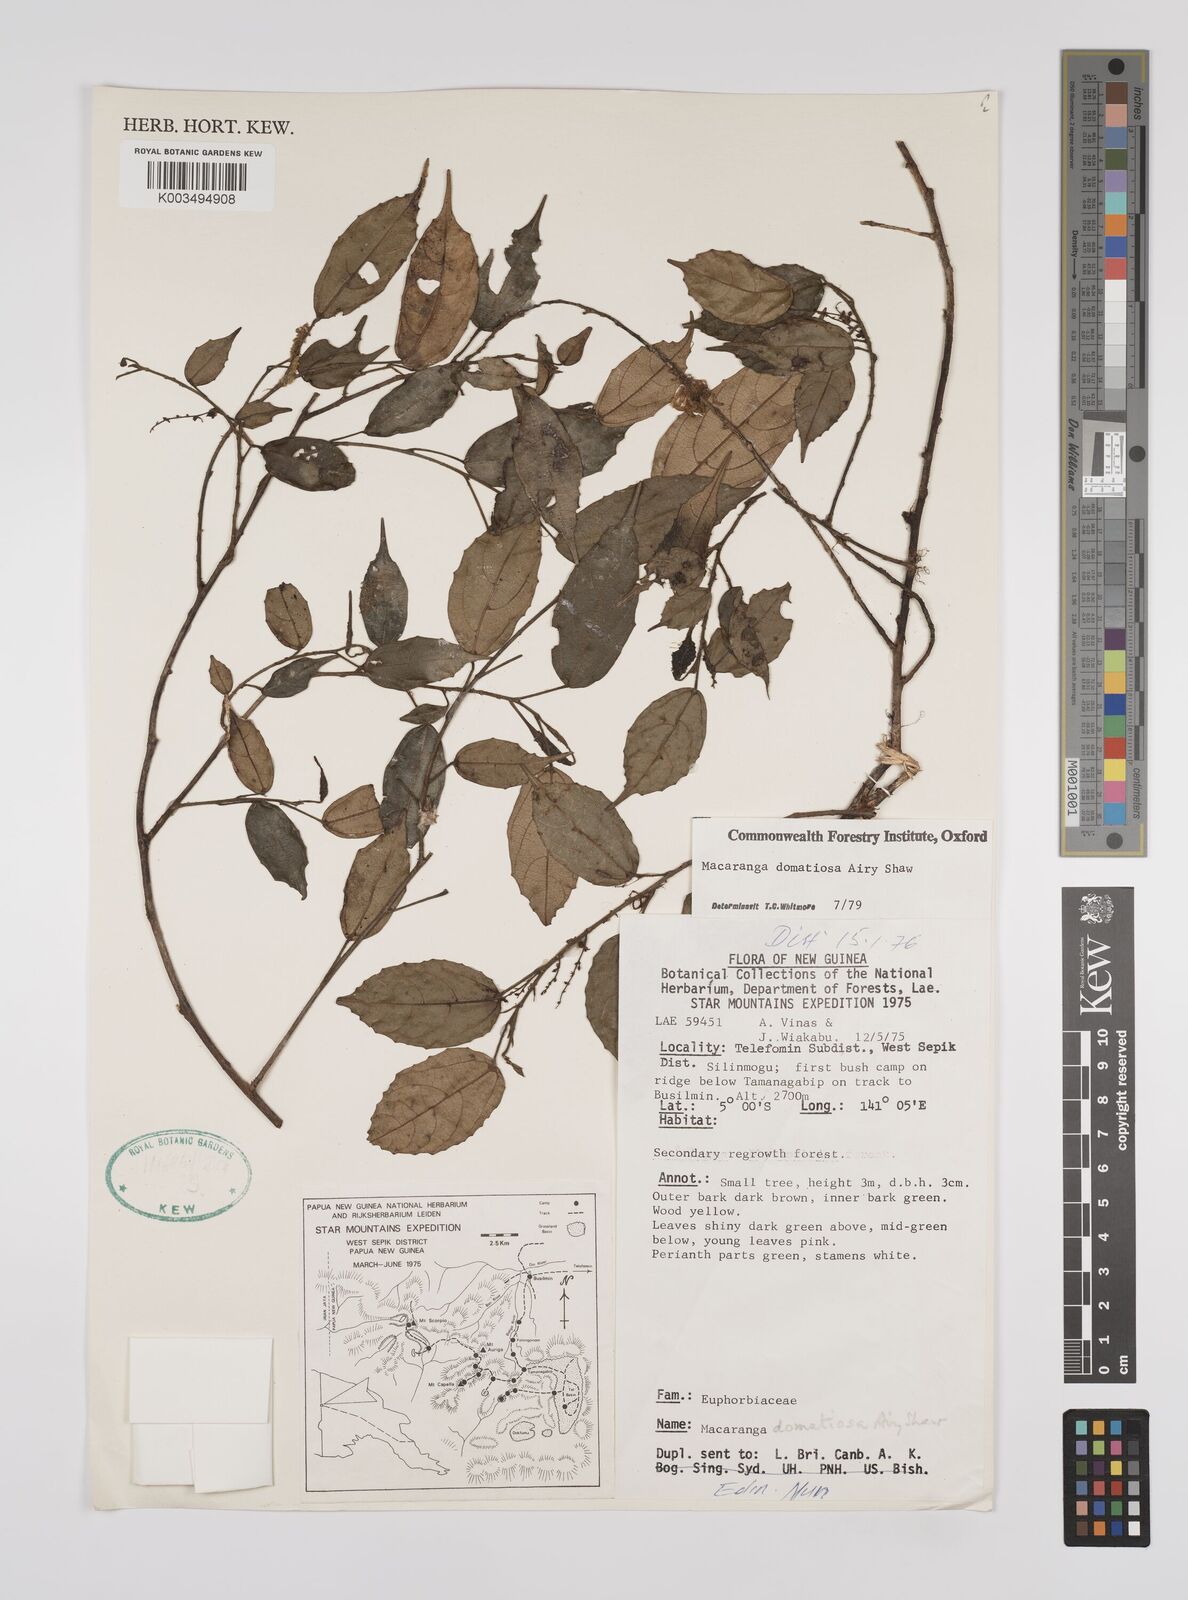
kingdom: Plantae
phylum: Tracheophyta
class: Magnoliopsida
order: Malpighiales
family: Euphorbiaceae
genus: Macaranga
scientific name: Macaranga domatiosa
